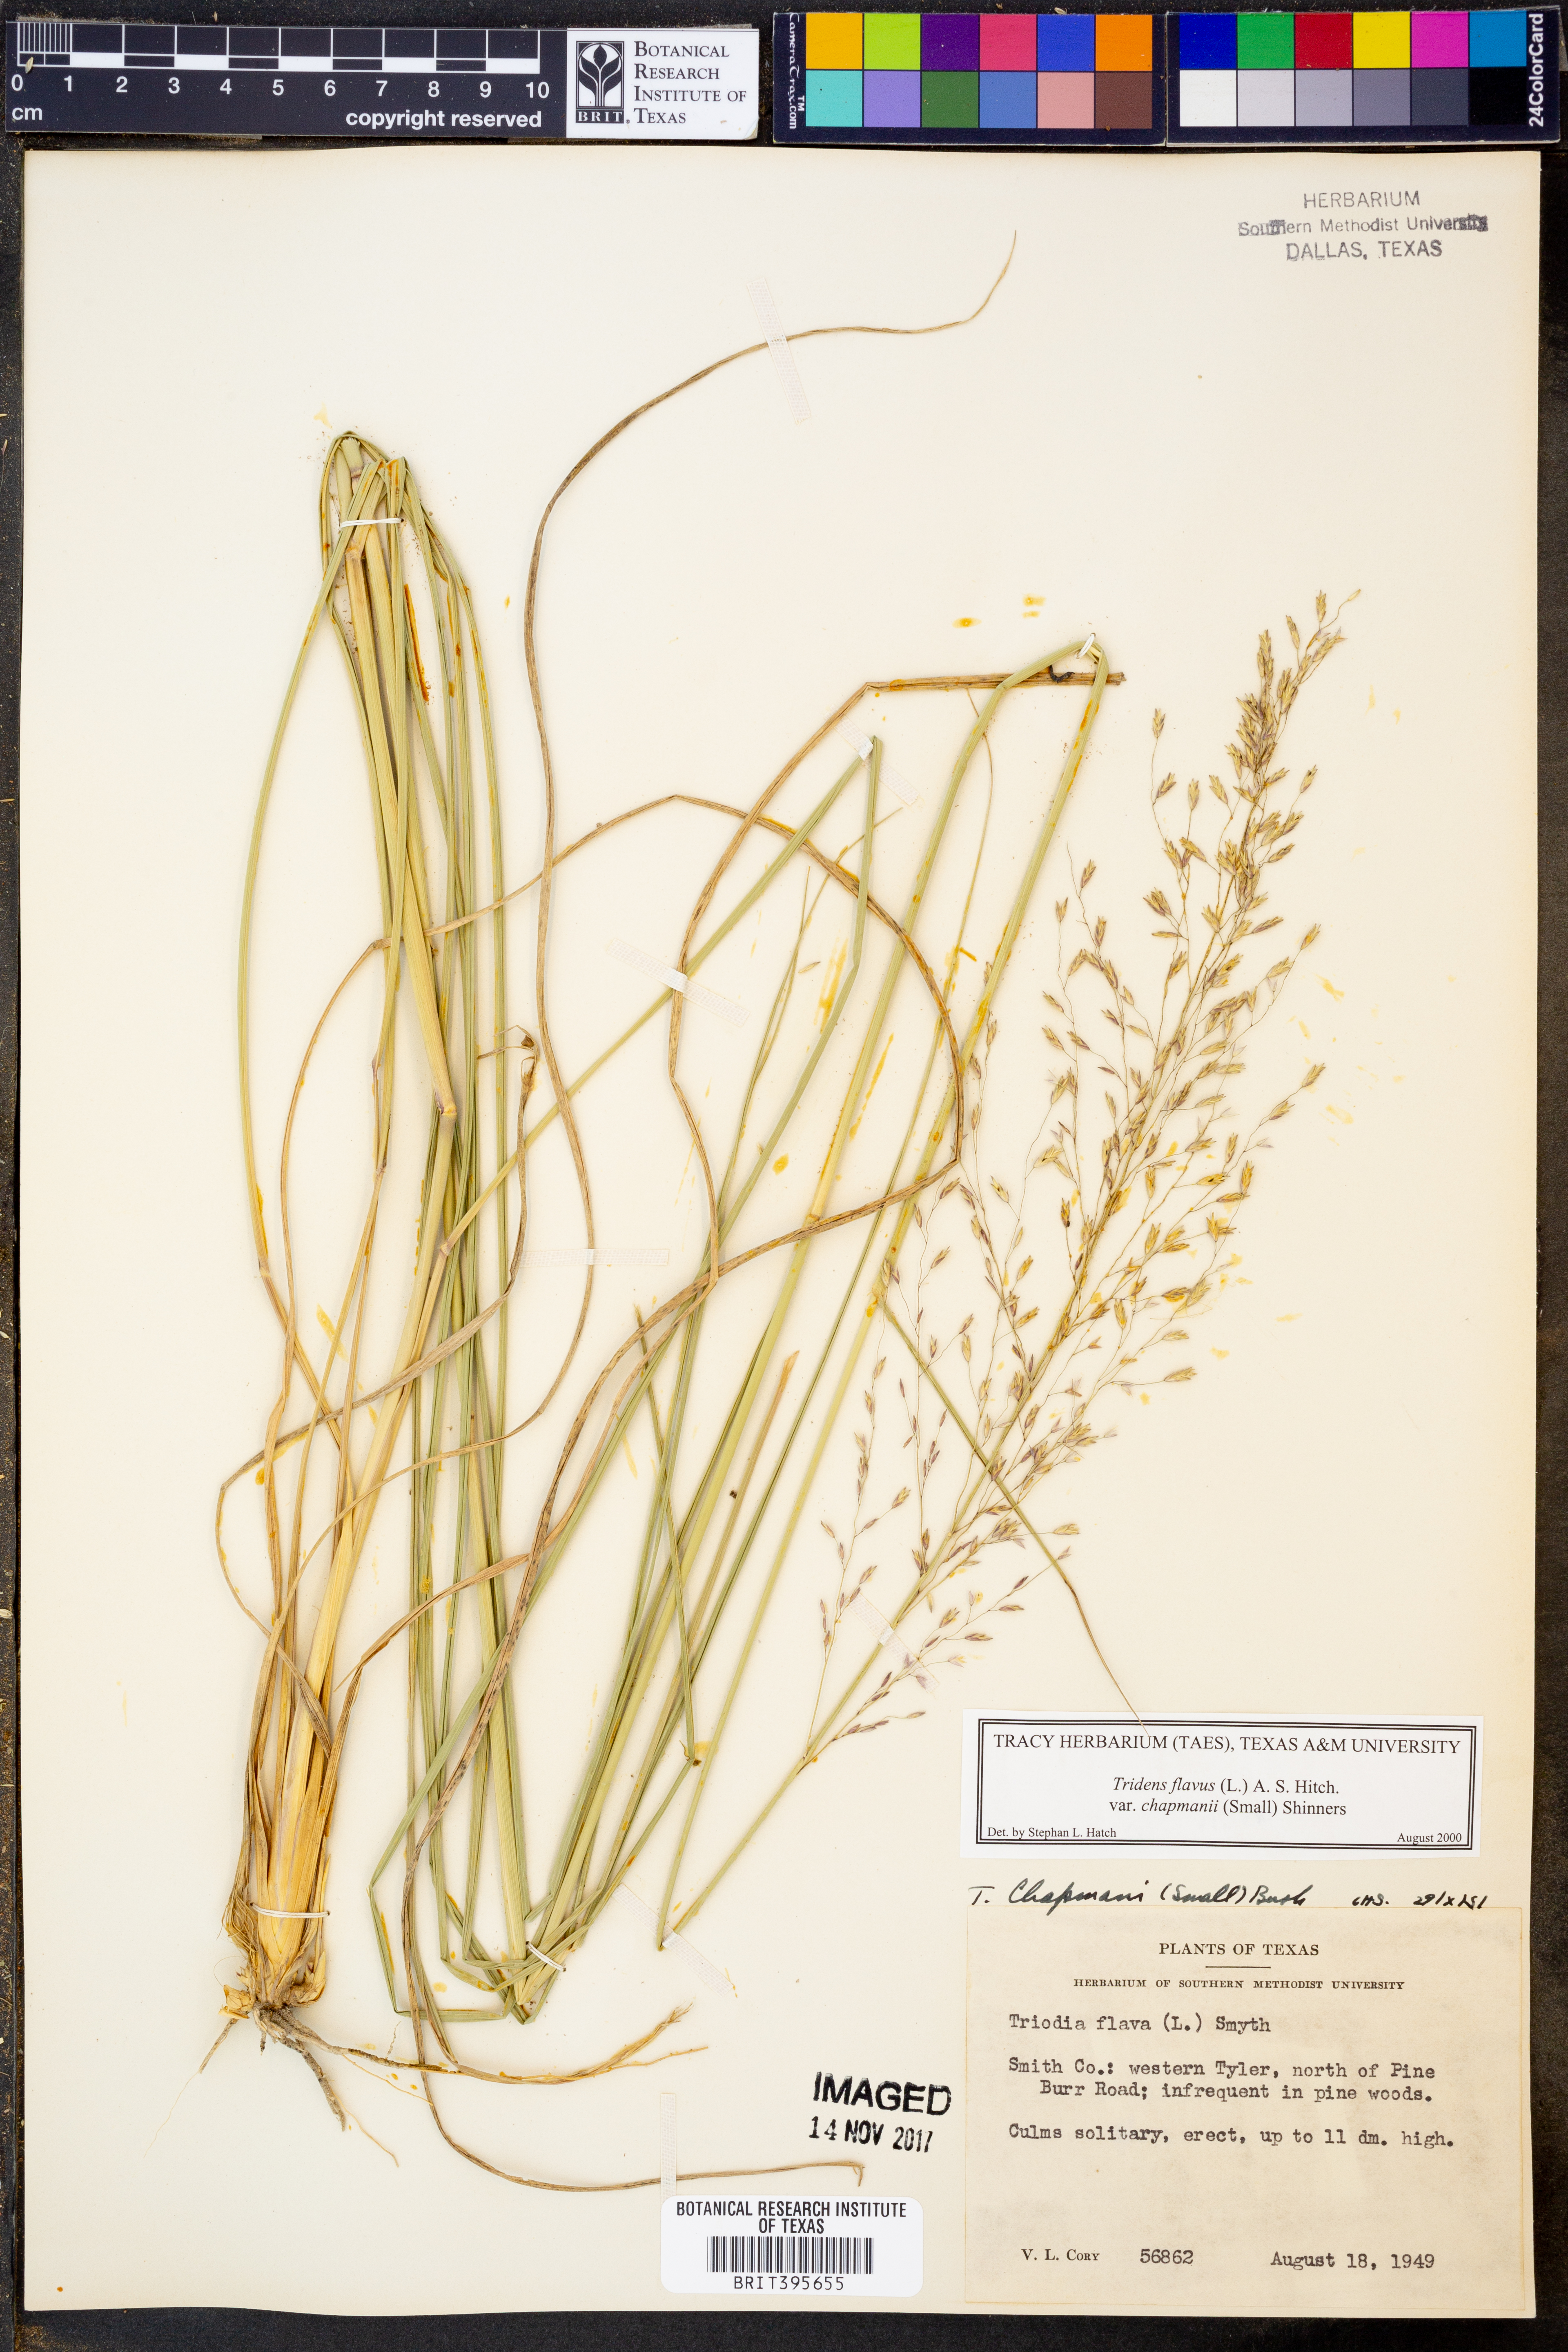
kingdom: Plantae
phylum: Tracheophyta
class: Liliopsida
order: Poales
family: Poaceae
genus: Tridens
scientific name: Tridens chapmanii
